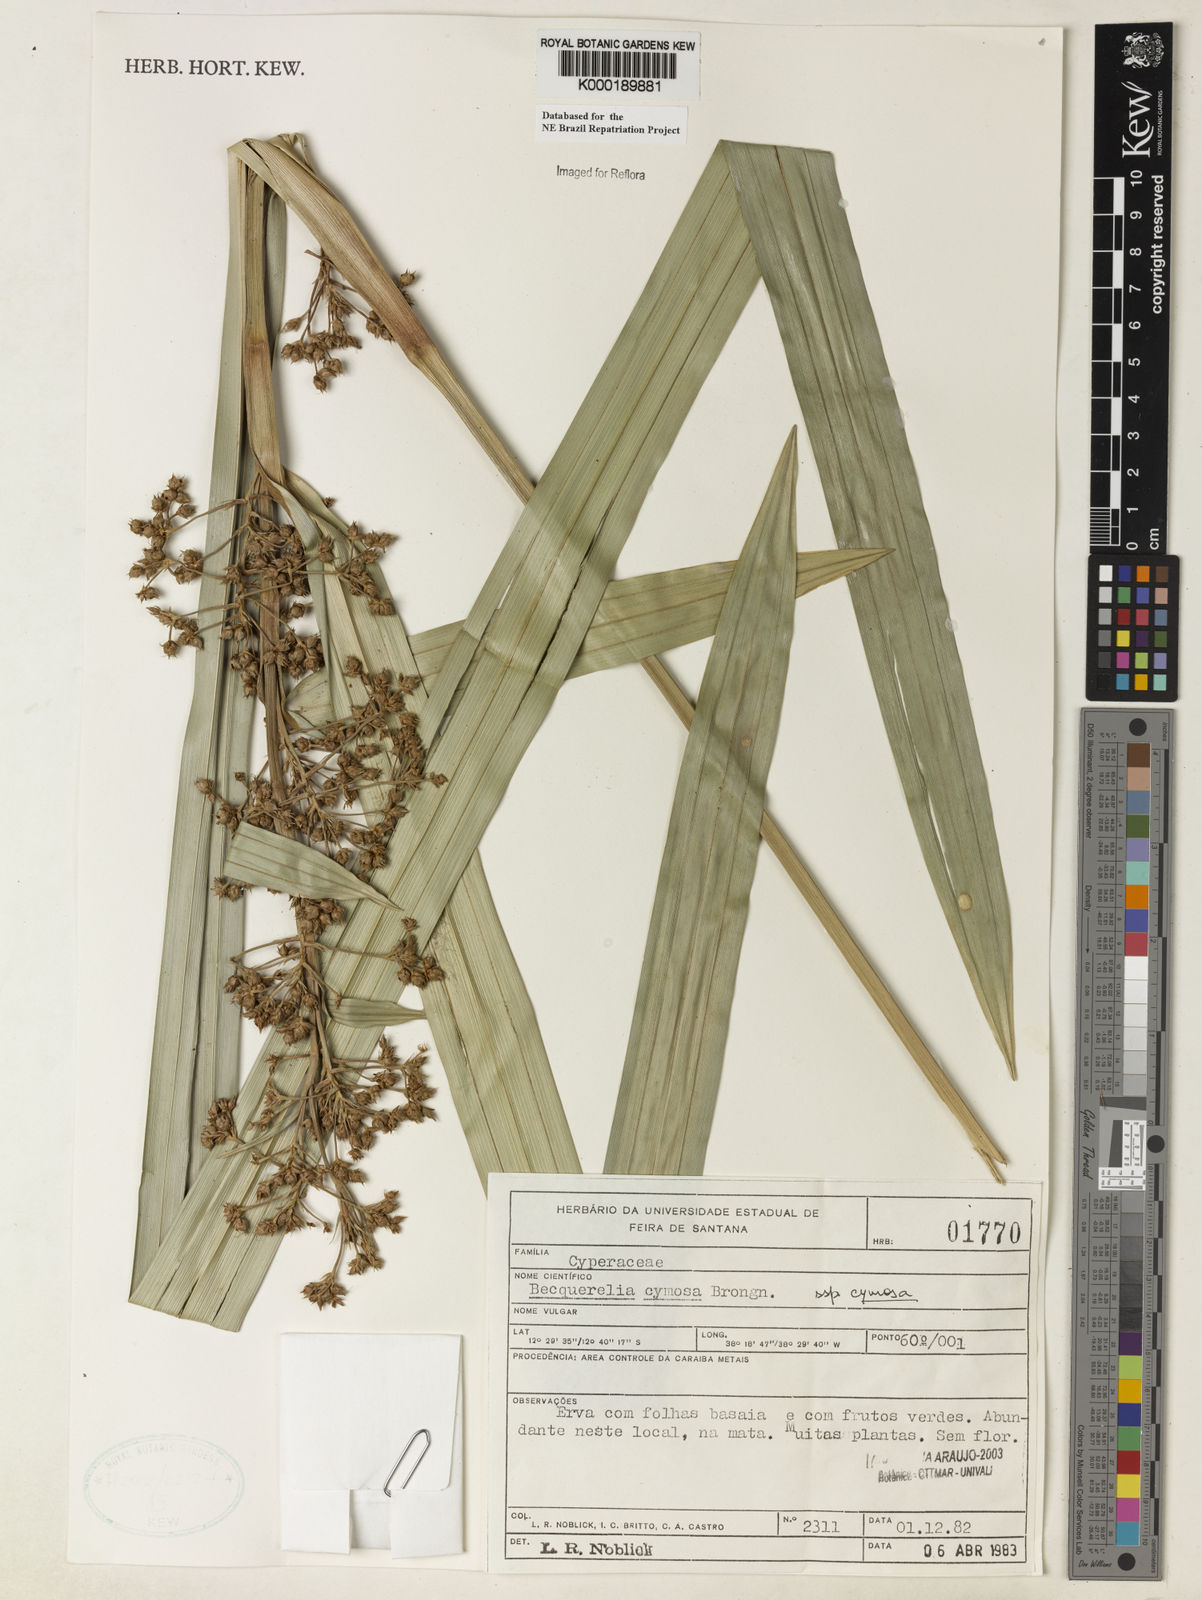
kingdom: Plantae
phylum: Tracheophyta
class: Liliopsida
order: Poales
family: Cyperaceae
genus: Becquerelia
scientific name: Becquerelia cymosa
